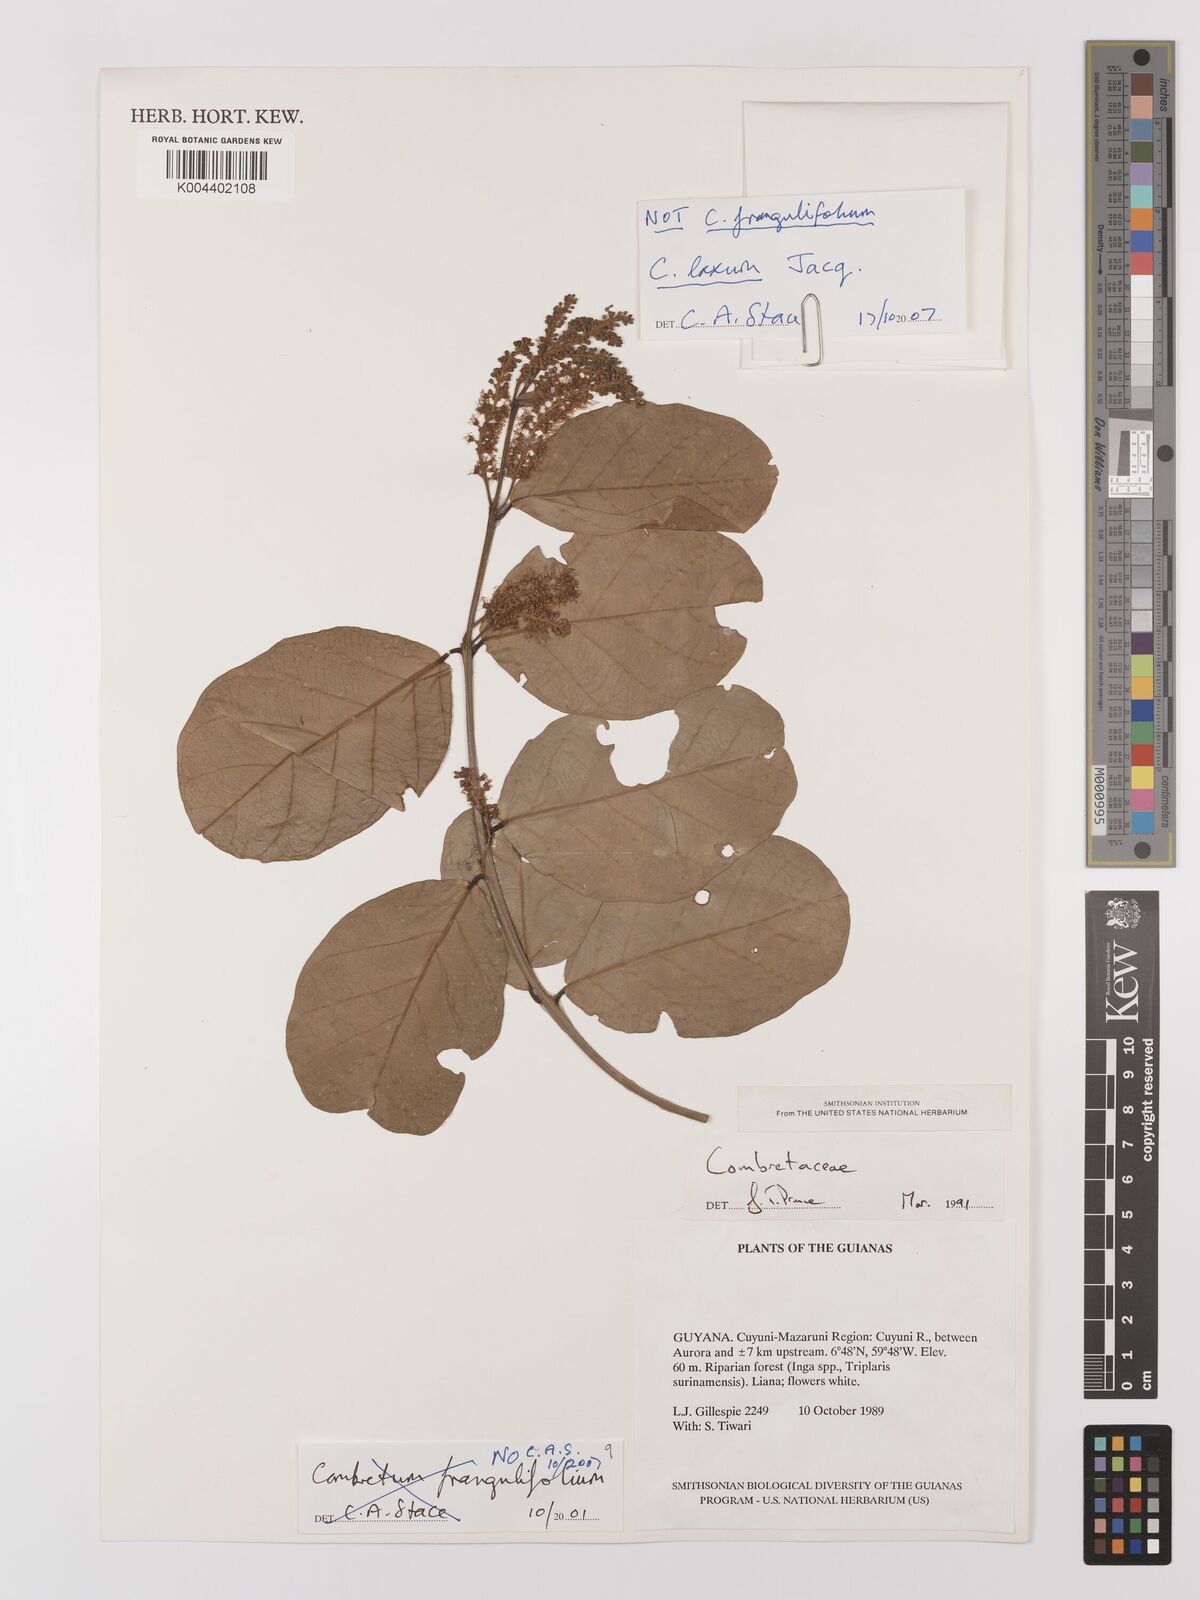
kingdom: Plantae
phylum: Tracheophyta
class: Magnoliopsida
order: Myrtales
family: Combretaceae
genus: Combretum
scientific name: Combretum
